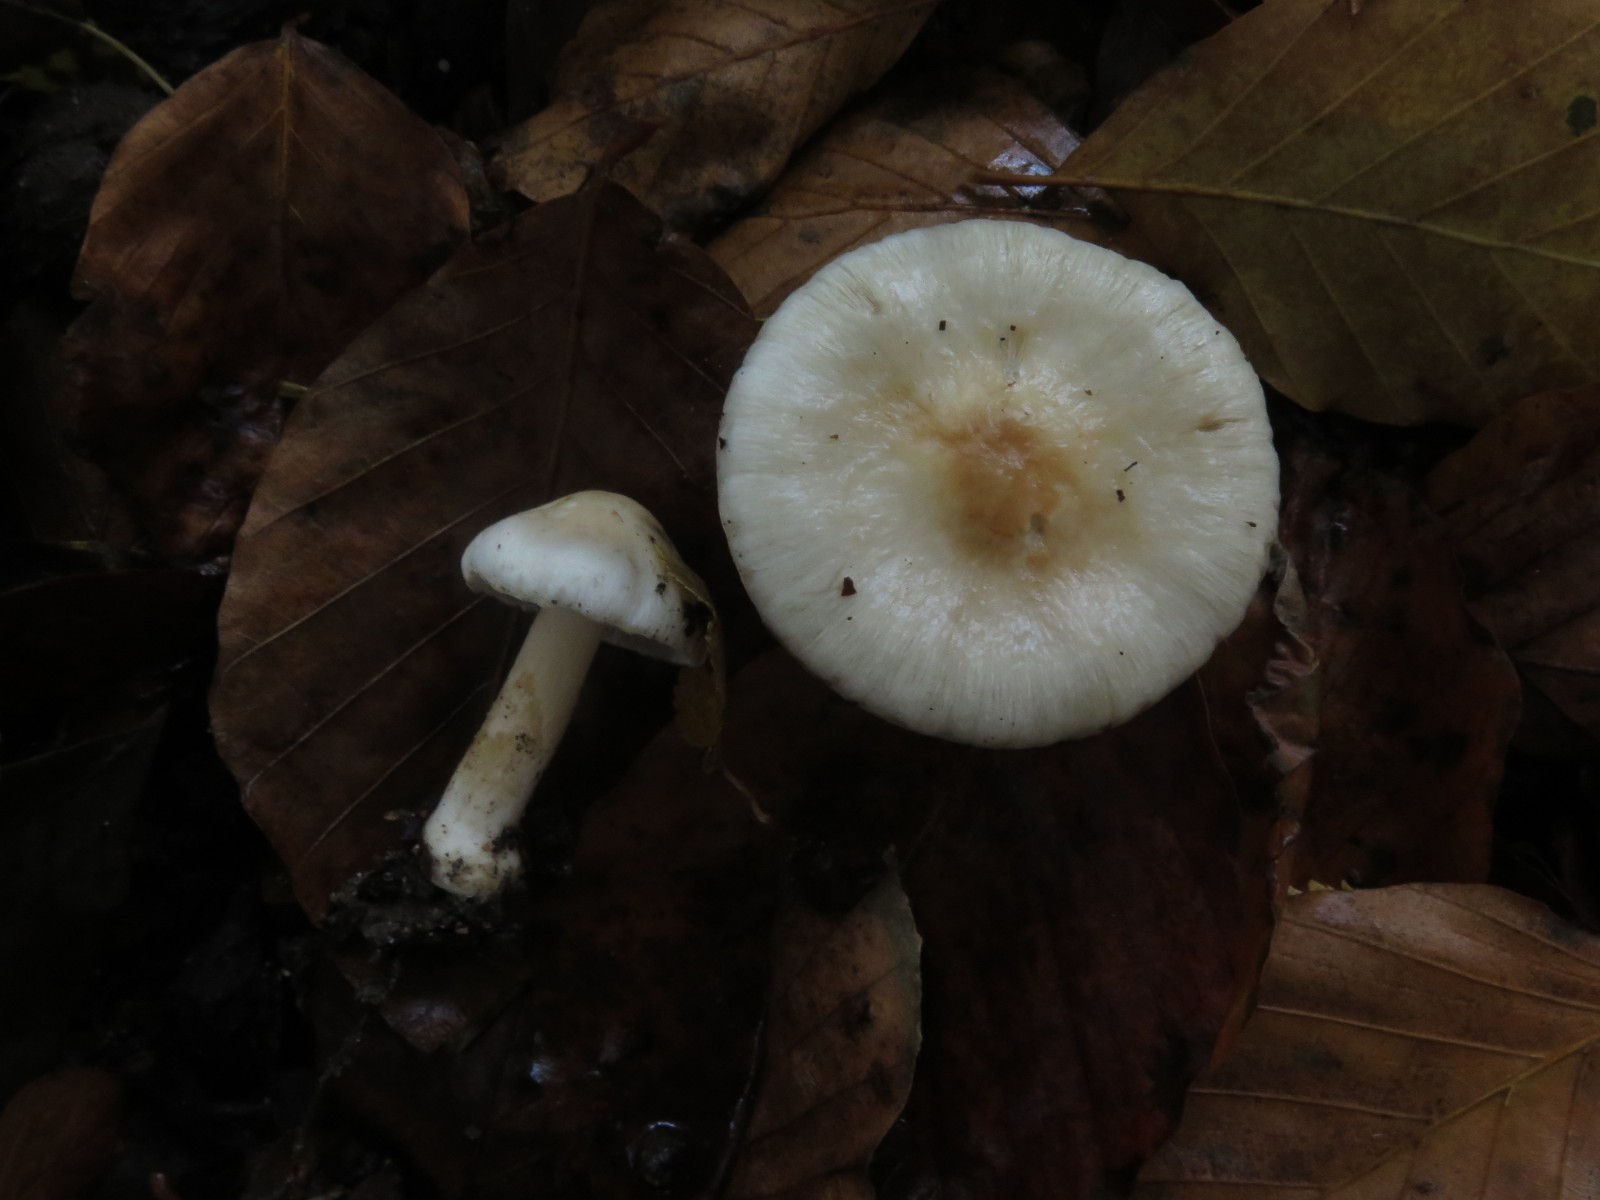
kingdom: Fungi
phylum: Basidiomycota
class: Agaricomycetes
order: Agaricales
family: Inocybaceae
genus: Inocybe
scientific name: Inocybe
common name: trævlhat
